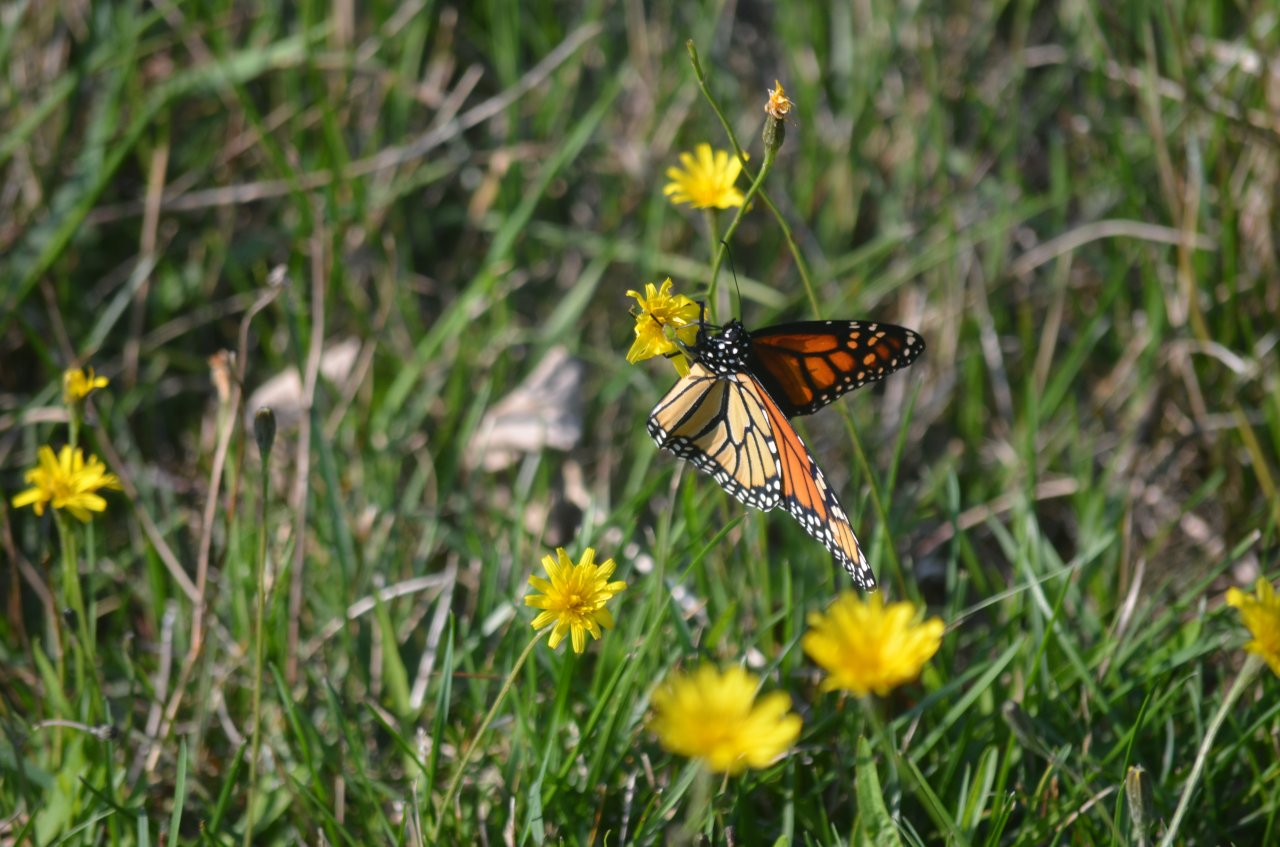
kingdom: Animalia
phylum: Arthropoda
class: Insecta
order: Lepidoptera
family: Nymphalidae
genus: Danaus
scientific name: Danaus plexippus
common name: Monarch
